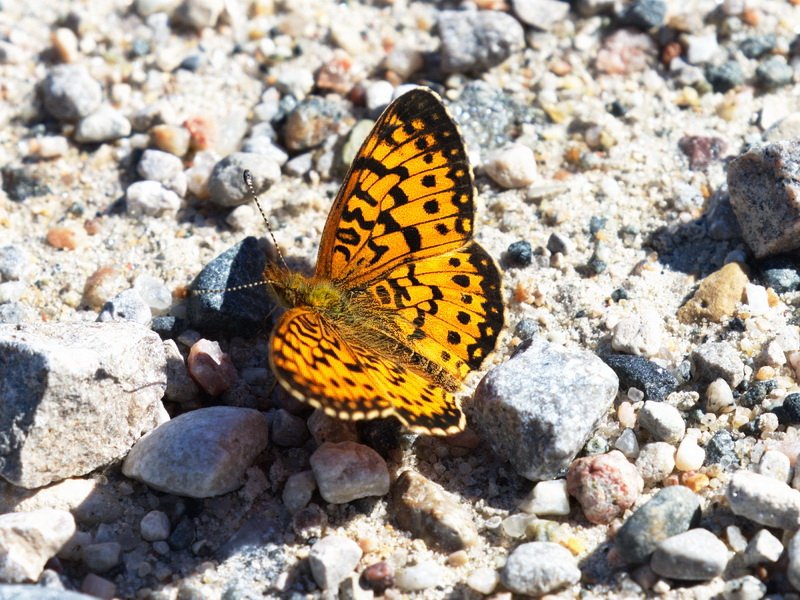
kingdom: Animalia
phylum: Arthropoda
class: Insecta
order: Lepidoptera
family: Nymphalidae
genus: Boloria
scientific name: Boloria selene
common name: Silver-bordered Fritillary
